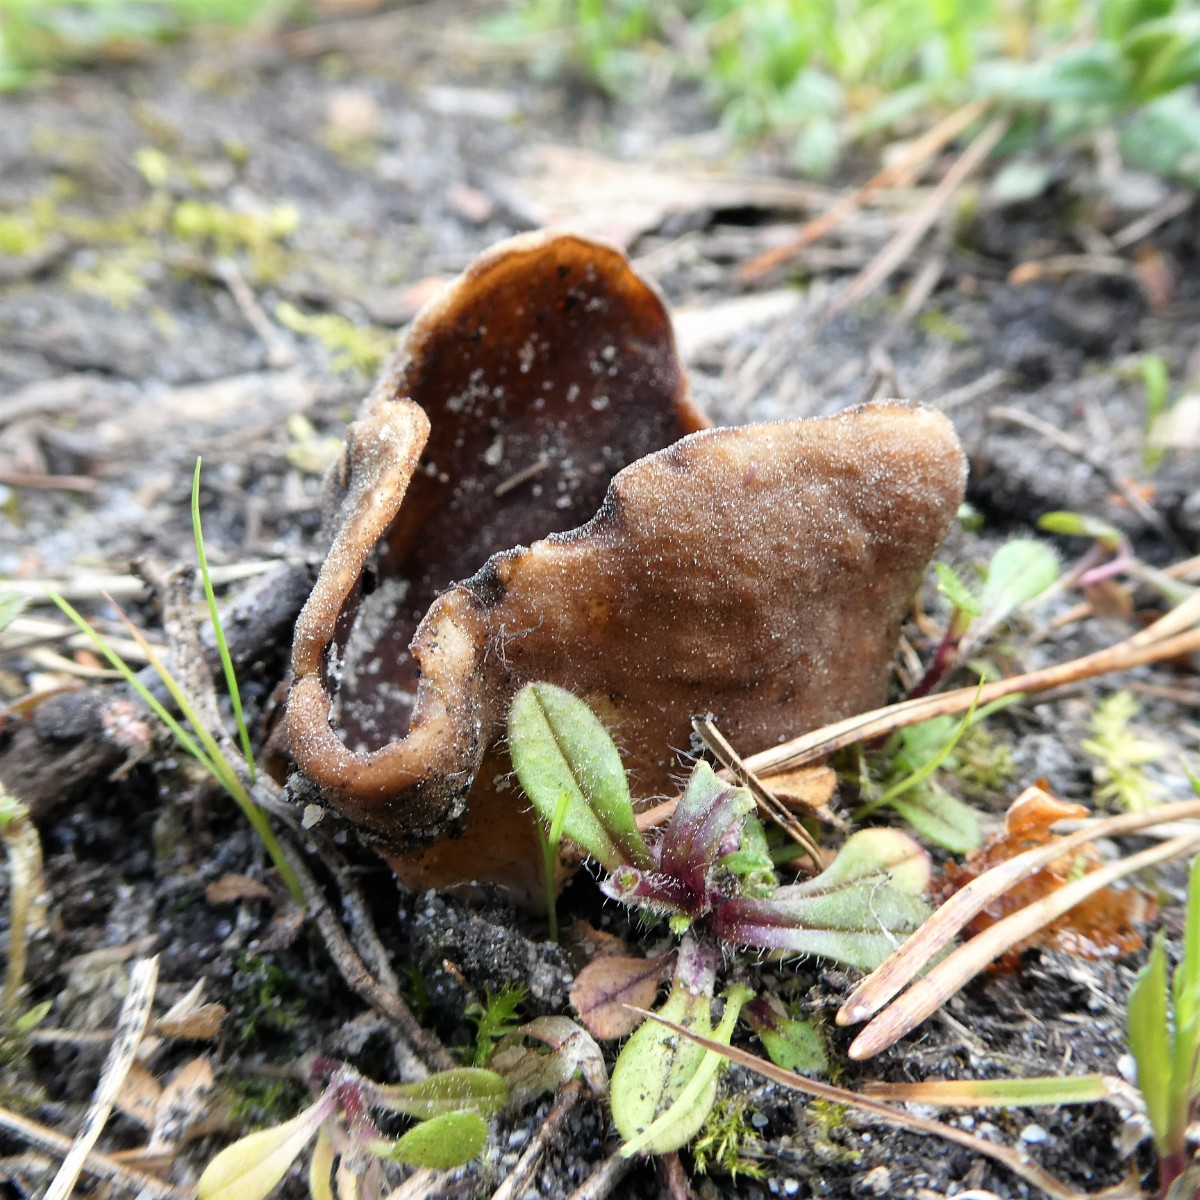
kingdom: Fungi
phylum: Ascomycota
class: Pezizomycetes
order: Pezizales
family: Helvellaceae
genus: Helvella
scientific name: Helvella acetabulum
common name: pokal-foldhat
